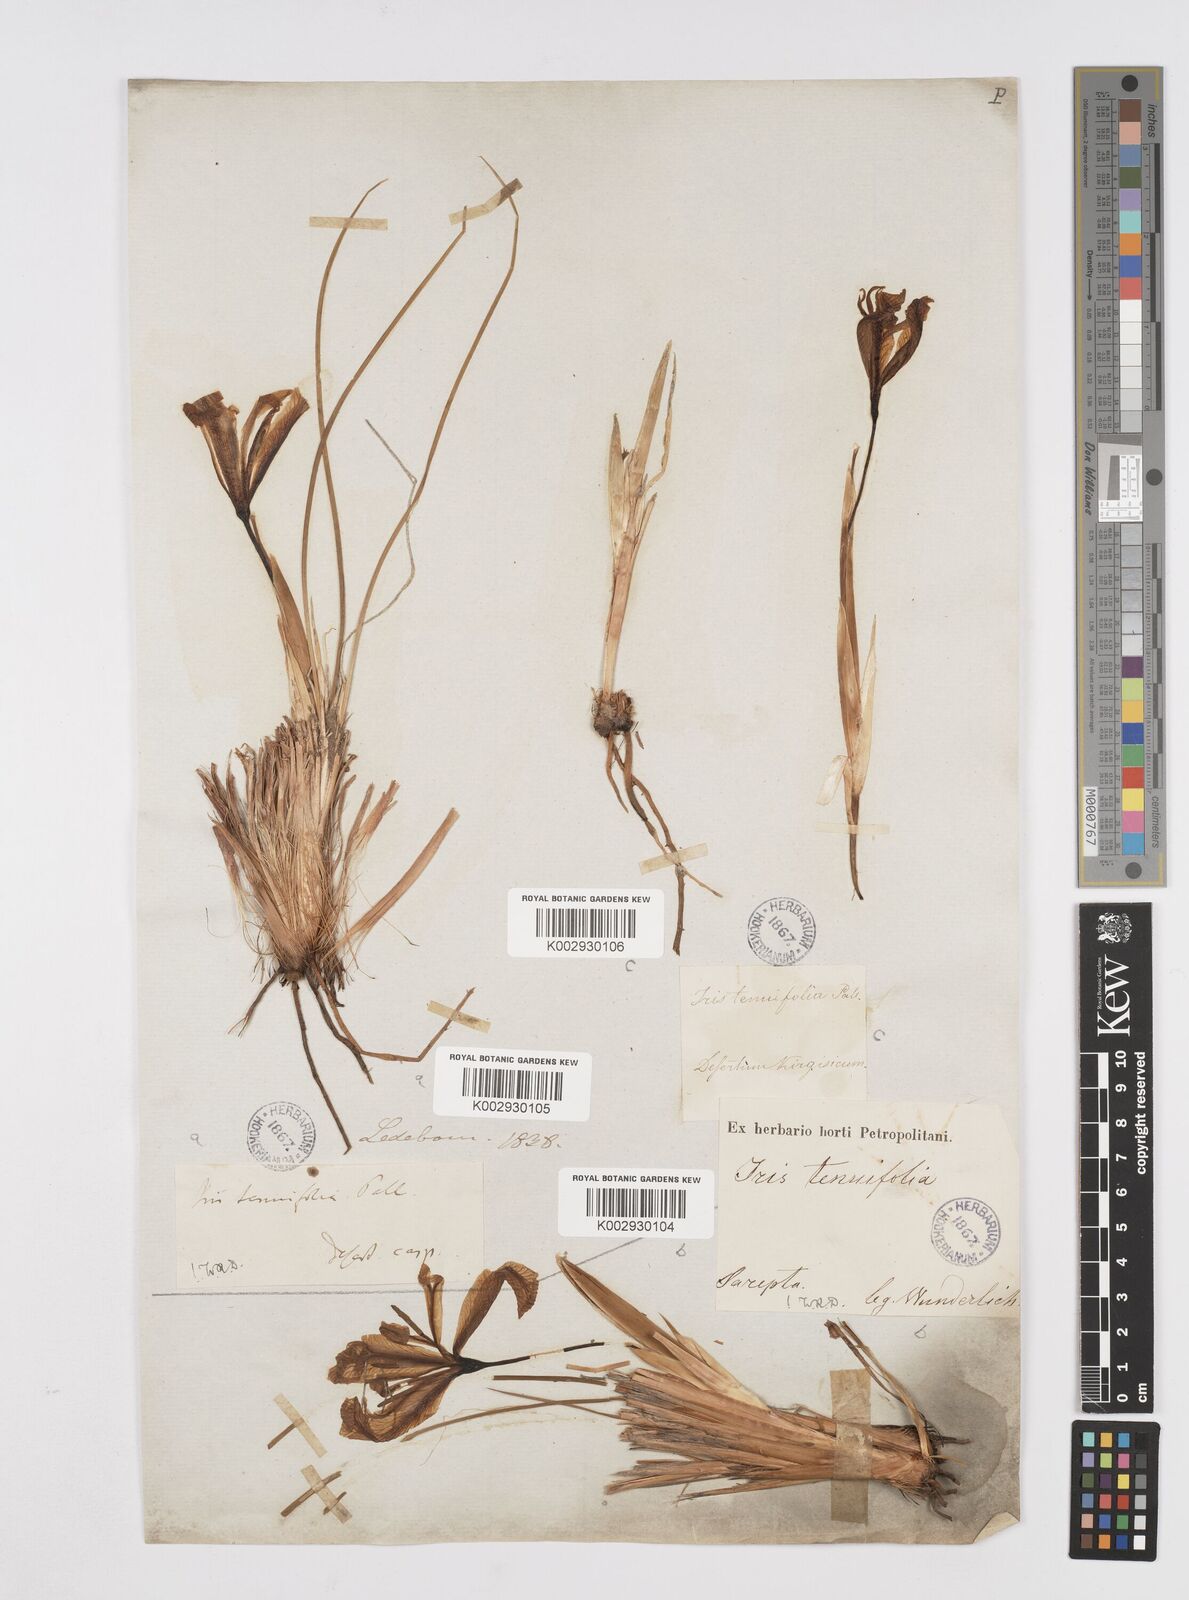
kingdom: Plantae
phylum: Tracheophyta
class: Liliopsida
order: Asparagales
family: Iridaceae
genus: Iris
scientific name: Iris tenuifolia
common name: Slender-leaf iris
